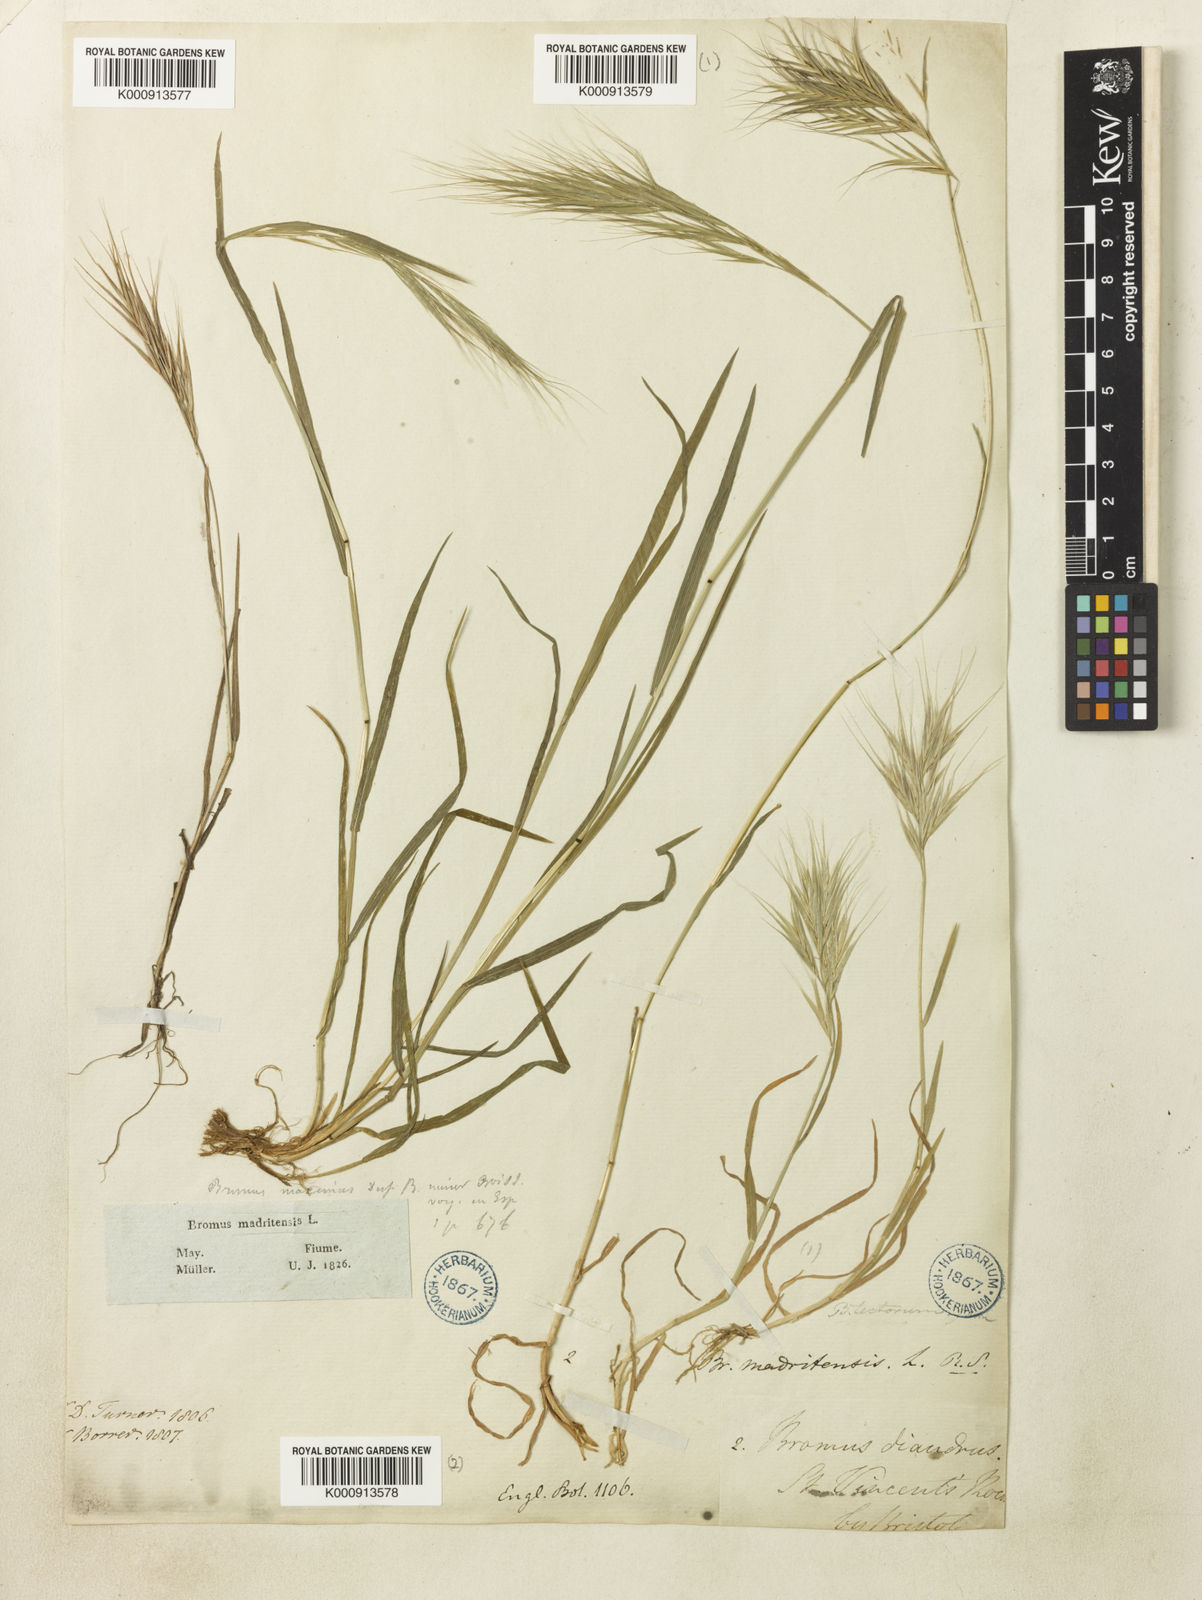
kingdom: Plantae
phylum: Tracheophyta
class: Liliopsida
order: Poales
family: Poaceae
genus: Bromus
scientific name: Bromus madritensis
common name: Compact brome
